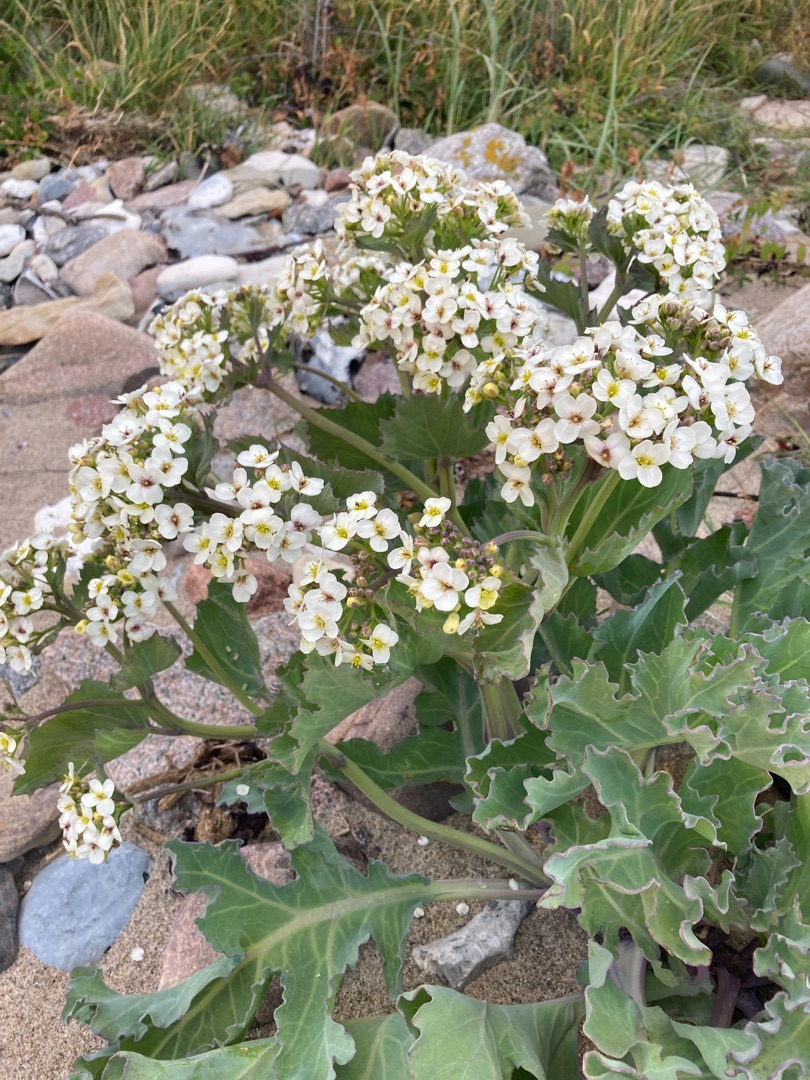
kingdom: Plantae
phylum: Tracheophyta
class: Magnoliopsida
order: Brassicales
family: Brassicaceae
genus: Crambe
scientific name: Crambe maritima
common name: Strandkål
